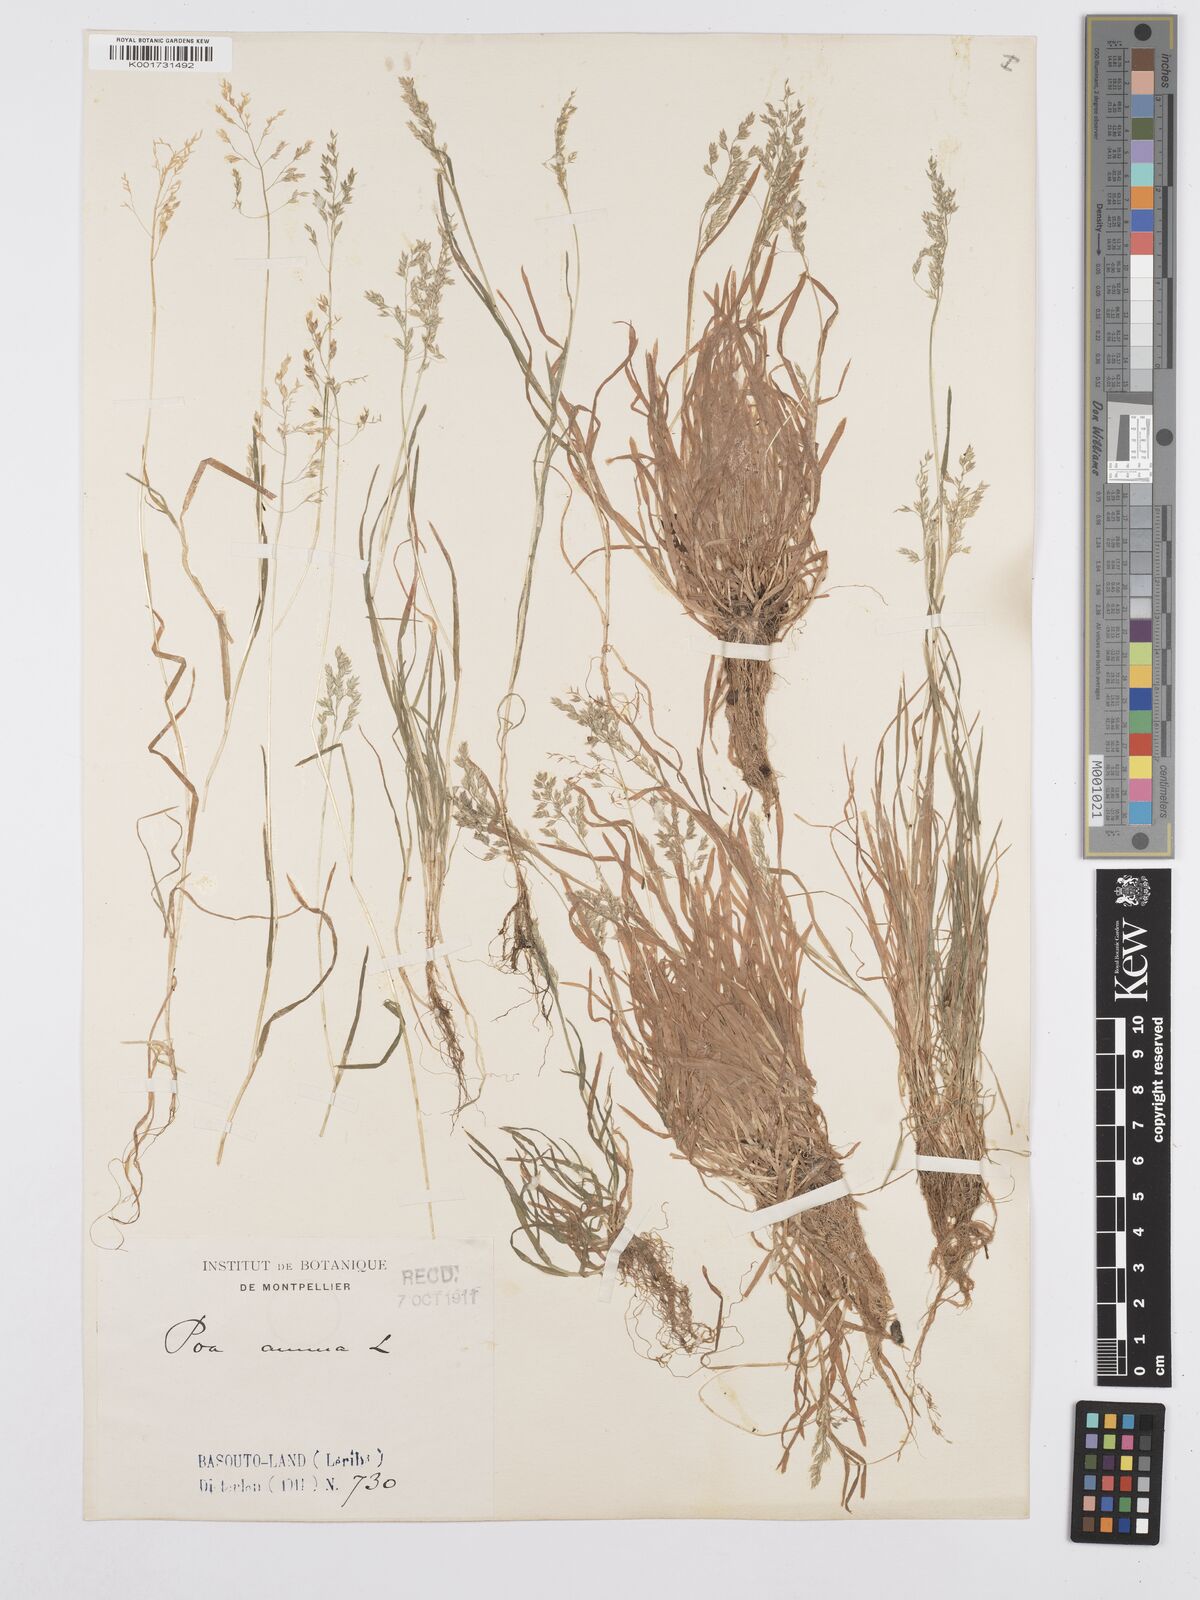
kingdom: Plantae
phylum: Tracheophyta
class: Liliopsida
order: Poales
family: Poaceae
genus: Poa
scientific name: Poa annua
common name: Annual bluegrass
